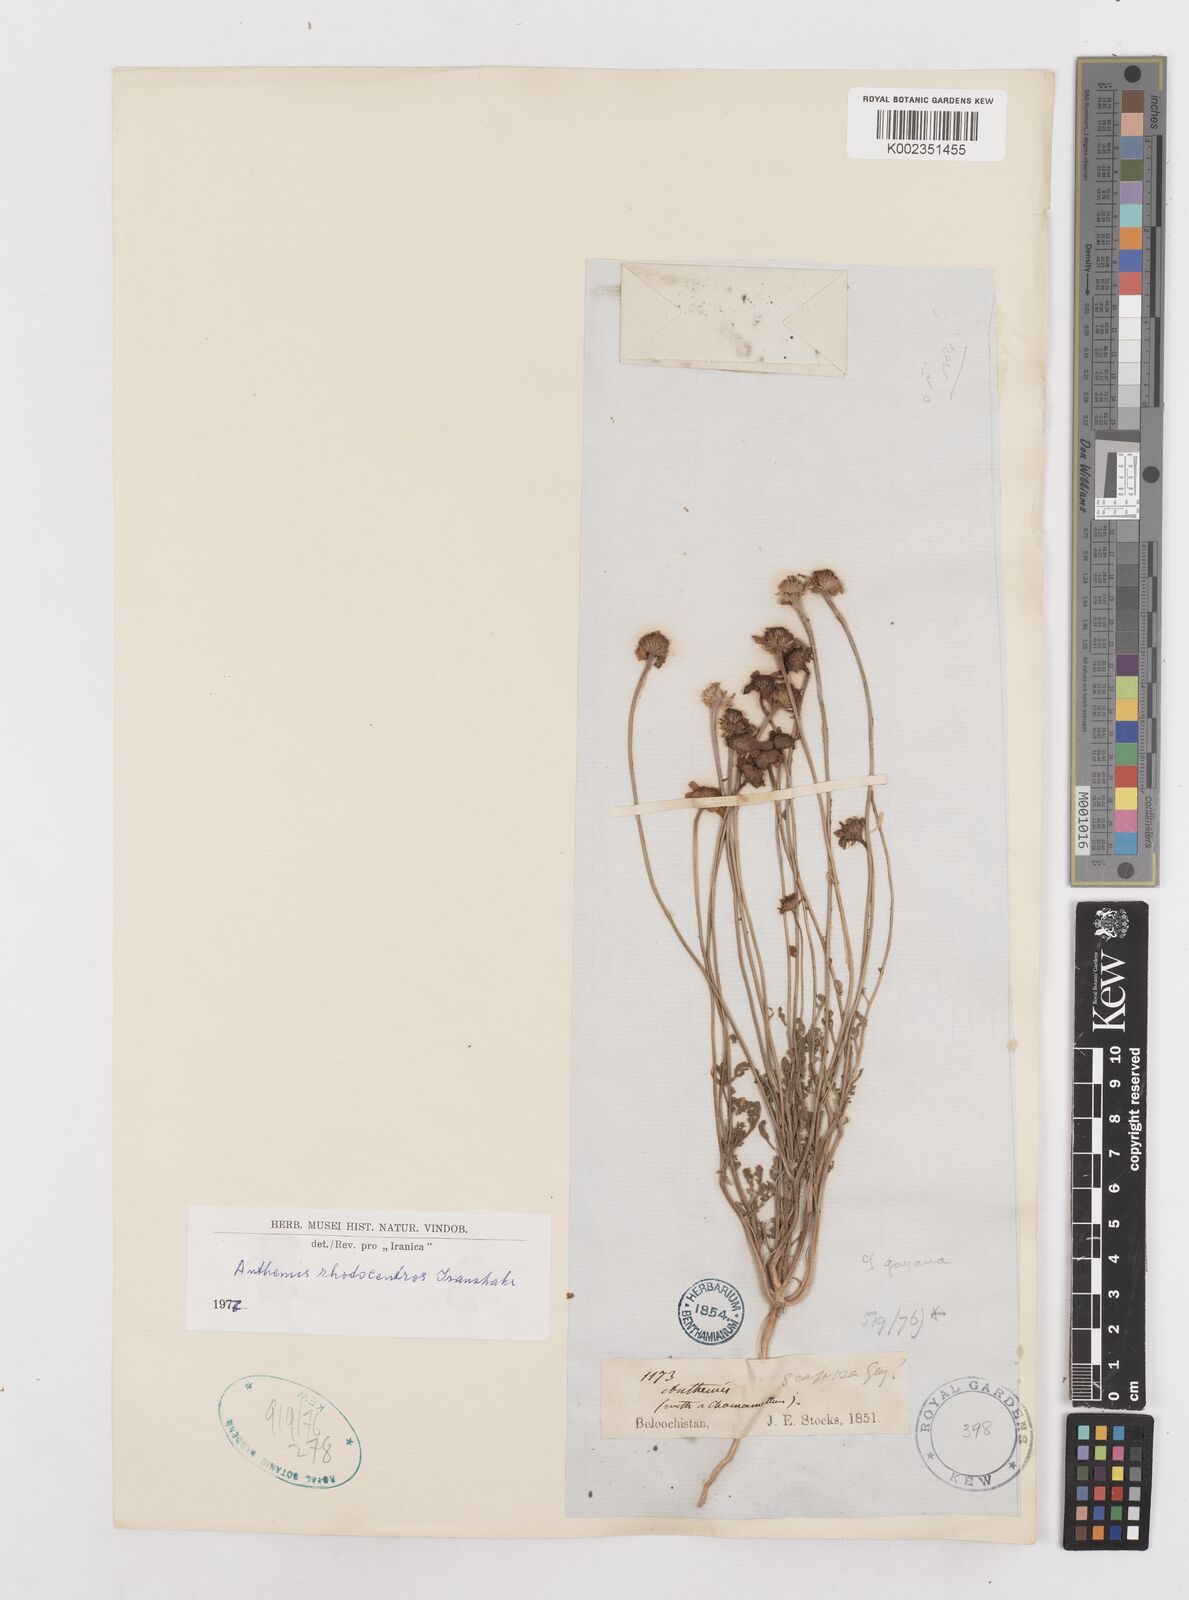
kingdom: Plantae
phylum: Tracheophyta
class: Magnoliopsida
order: Asterales
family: Asteraceae
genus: Anthemis
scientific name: Anthemis gayana
